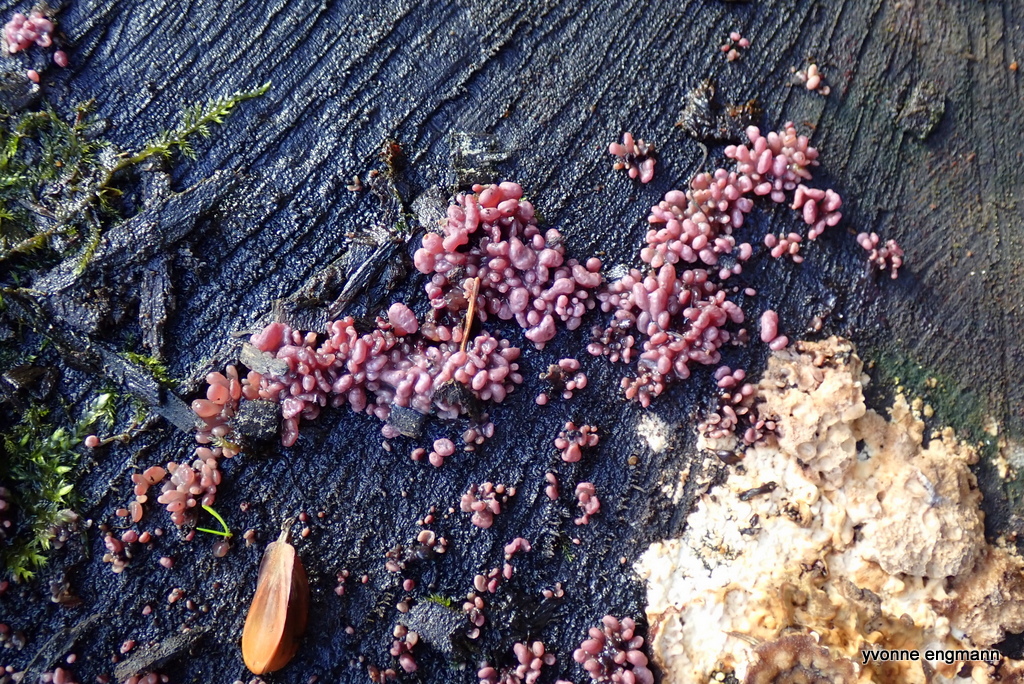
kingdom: Fungi
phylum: Ascomycota
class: Leotiomycetes
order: Helotiales
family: Gelatinodiscaceae
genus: Ascocoryne
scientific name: Ascocoryne sarcoides
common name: rødlilla sejskive
